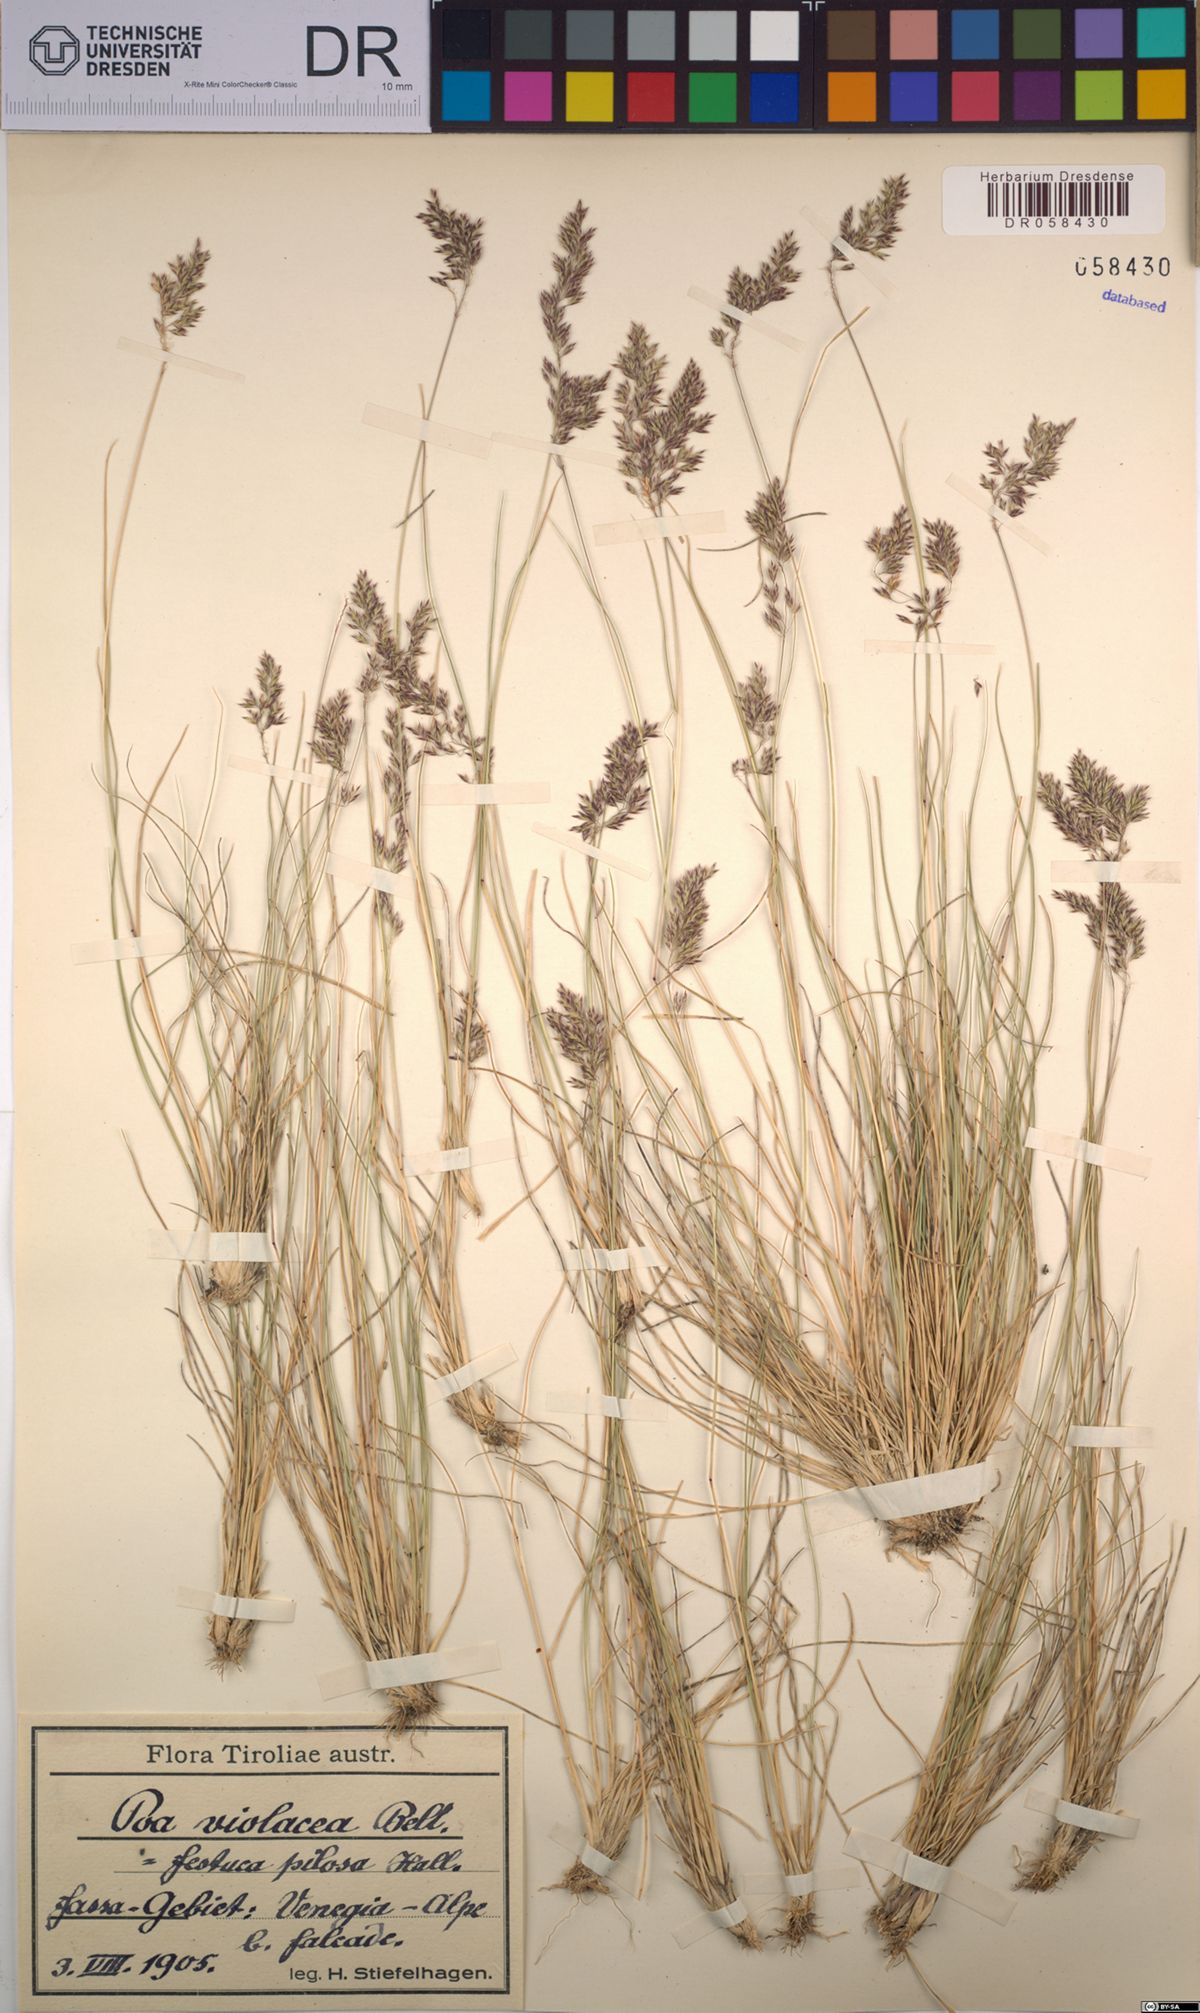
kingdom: Plantae
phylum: Tracheophyta
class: Liliopsida
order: Poales
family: Poaceae
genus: Bellardiochloa
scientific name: Bellardiochloa variegata
